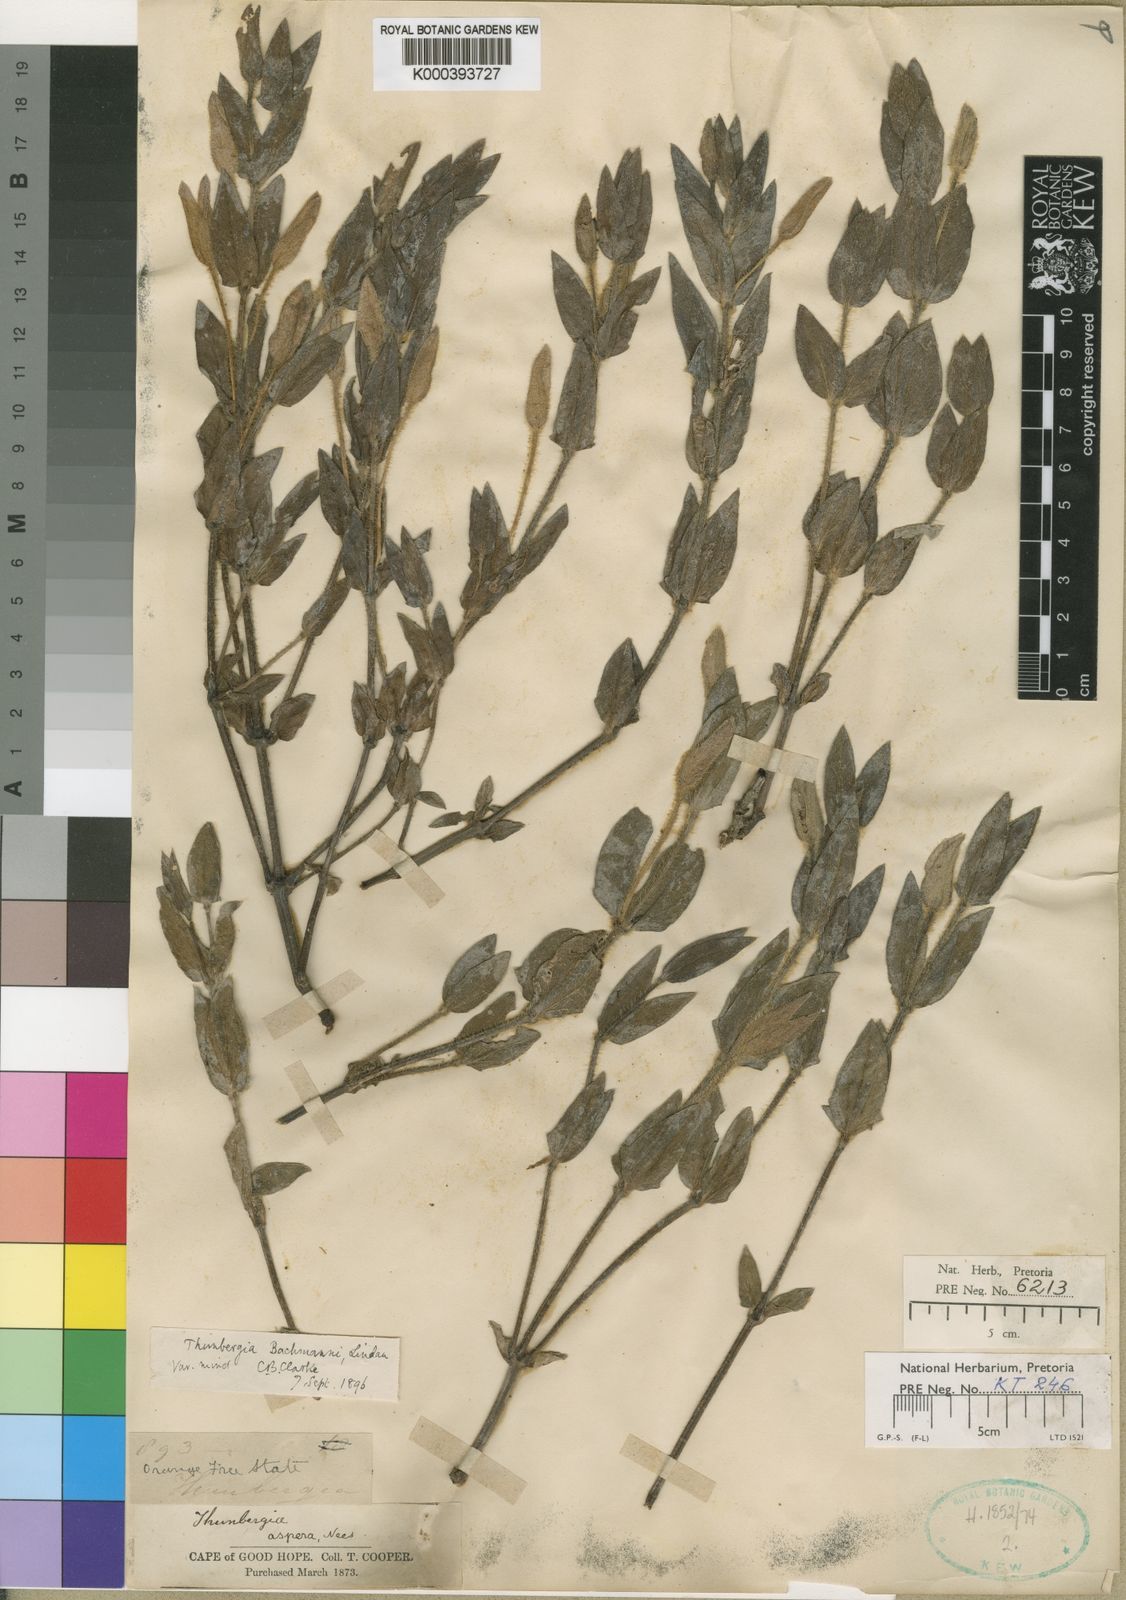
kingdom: Plantae
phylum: Tracheophyta
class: Magnoliopsida
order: Lamiales
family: Acanthaceae
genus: Thunbergia
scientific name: Thunbergia atriplicifolia
